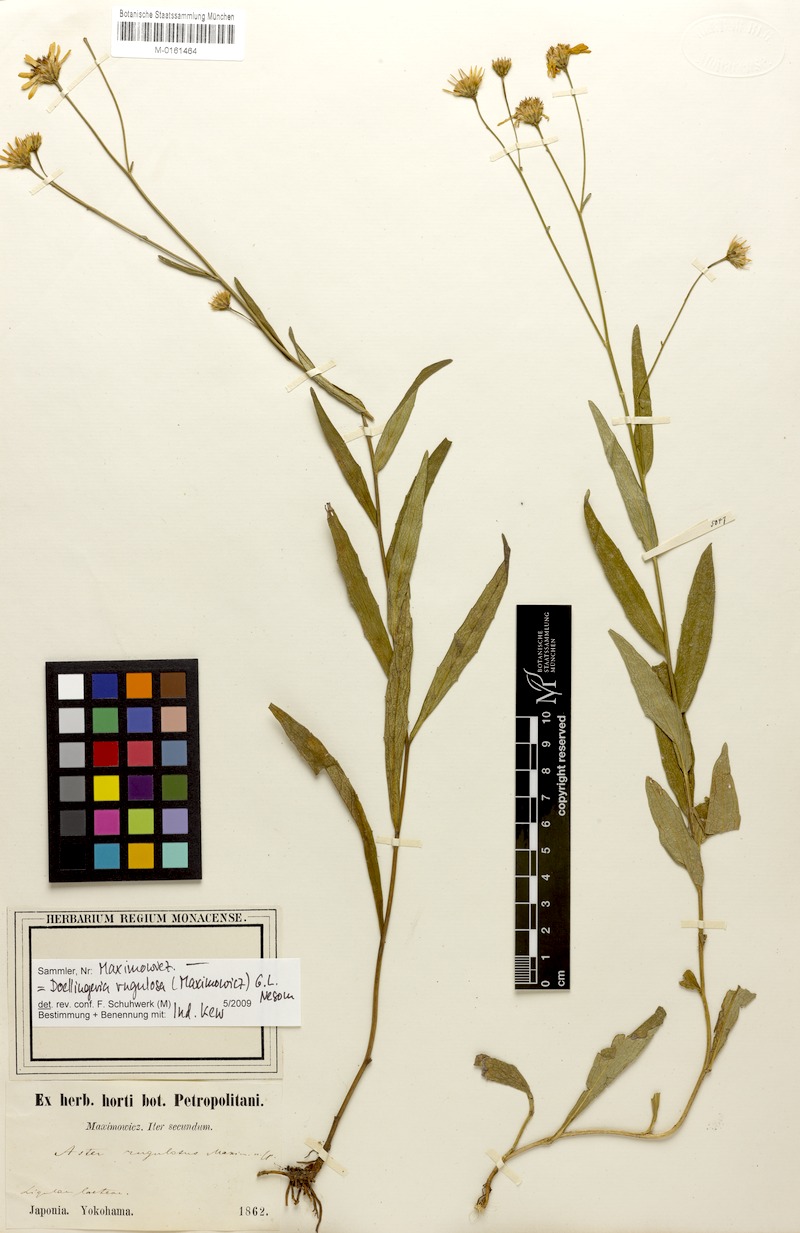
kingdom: Plantae
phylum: Tracheophyta
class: Magnoliopsida
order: Asterales
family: Asteraceae
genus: Cardiagyris
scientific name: Cardiagyris rugulosa
